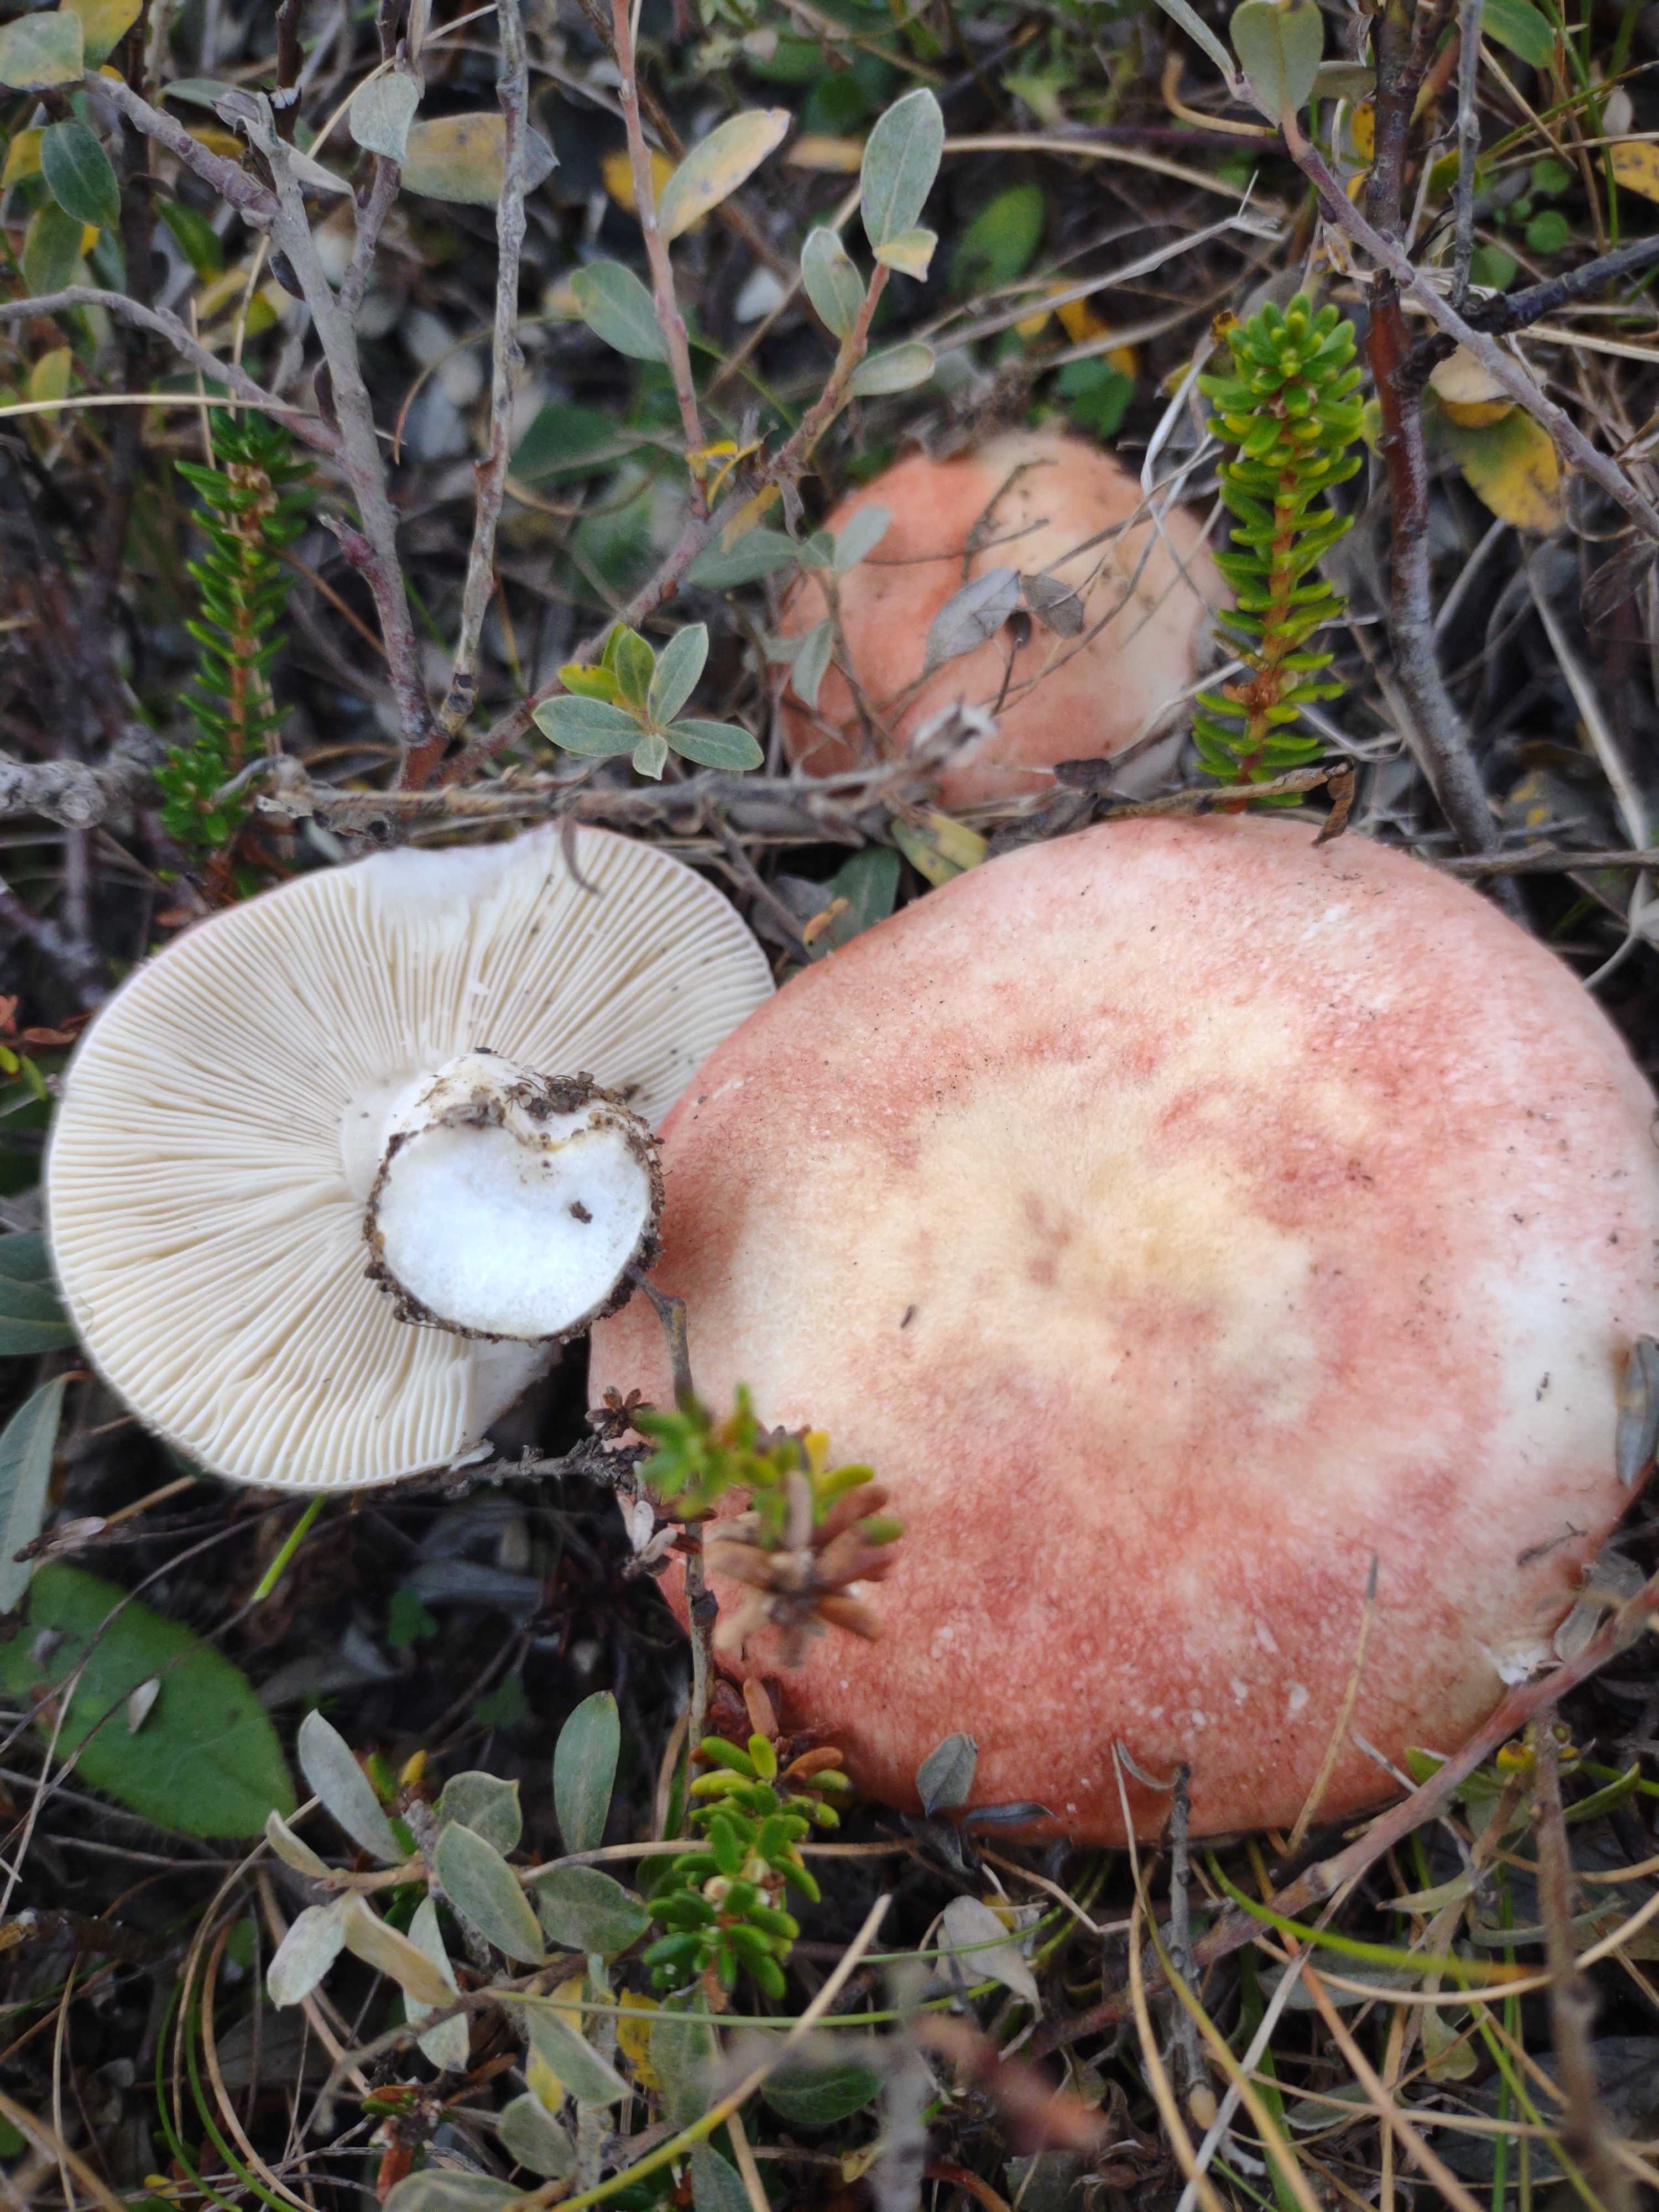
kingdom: Fungi
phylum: Basidiomycota
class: Agaricomycetes
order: Russulales
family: Russulaceae
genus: Russula
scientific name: Russula
